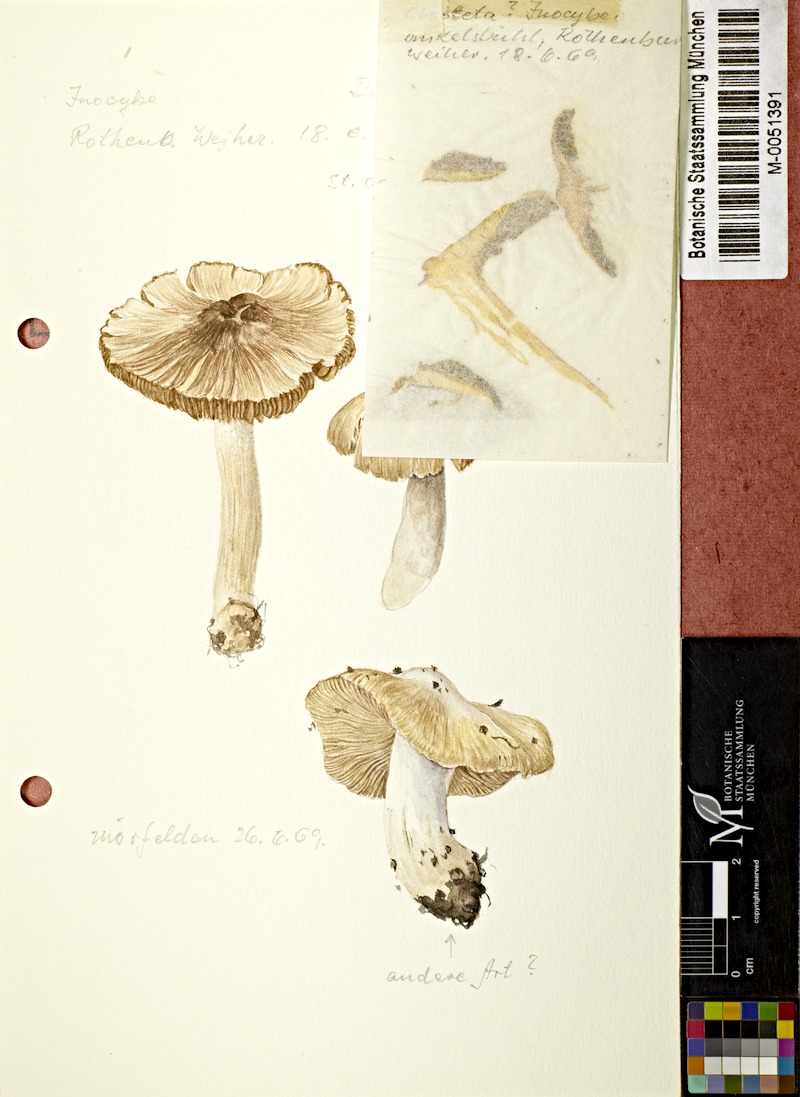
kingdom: Fungi
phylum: Basidiomycota
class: Agaricomycetes
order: Agaricales
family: Inocybaceae
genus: Inocybe
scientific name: Inocybe
